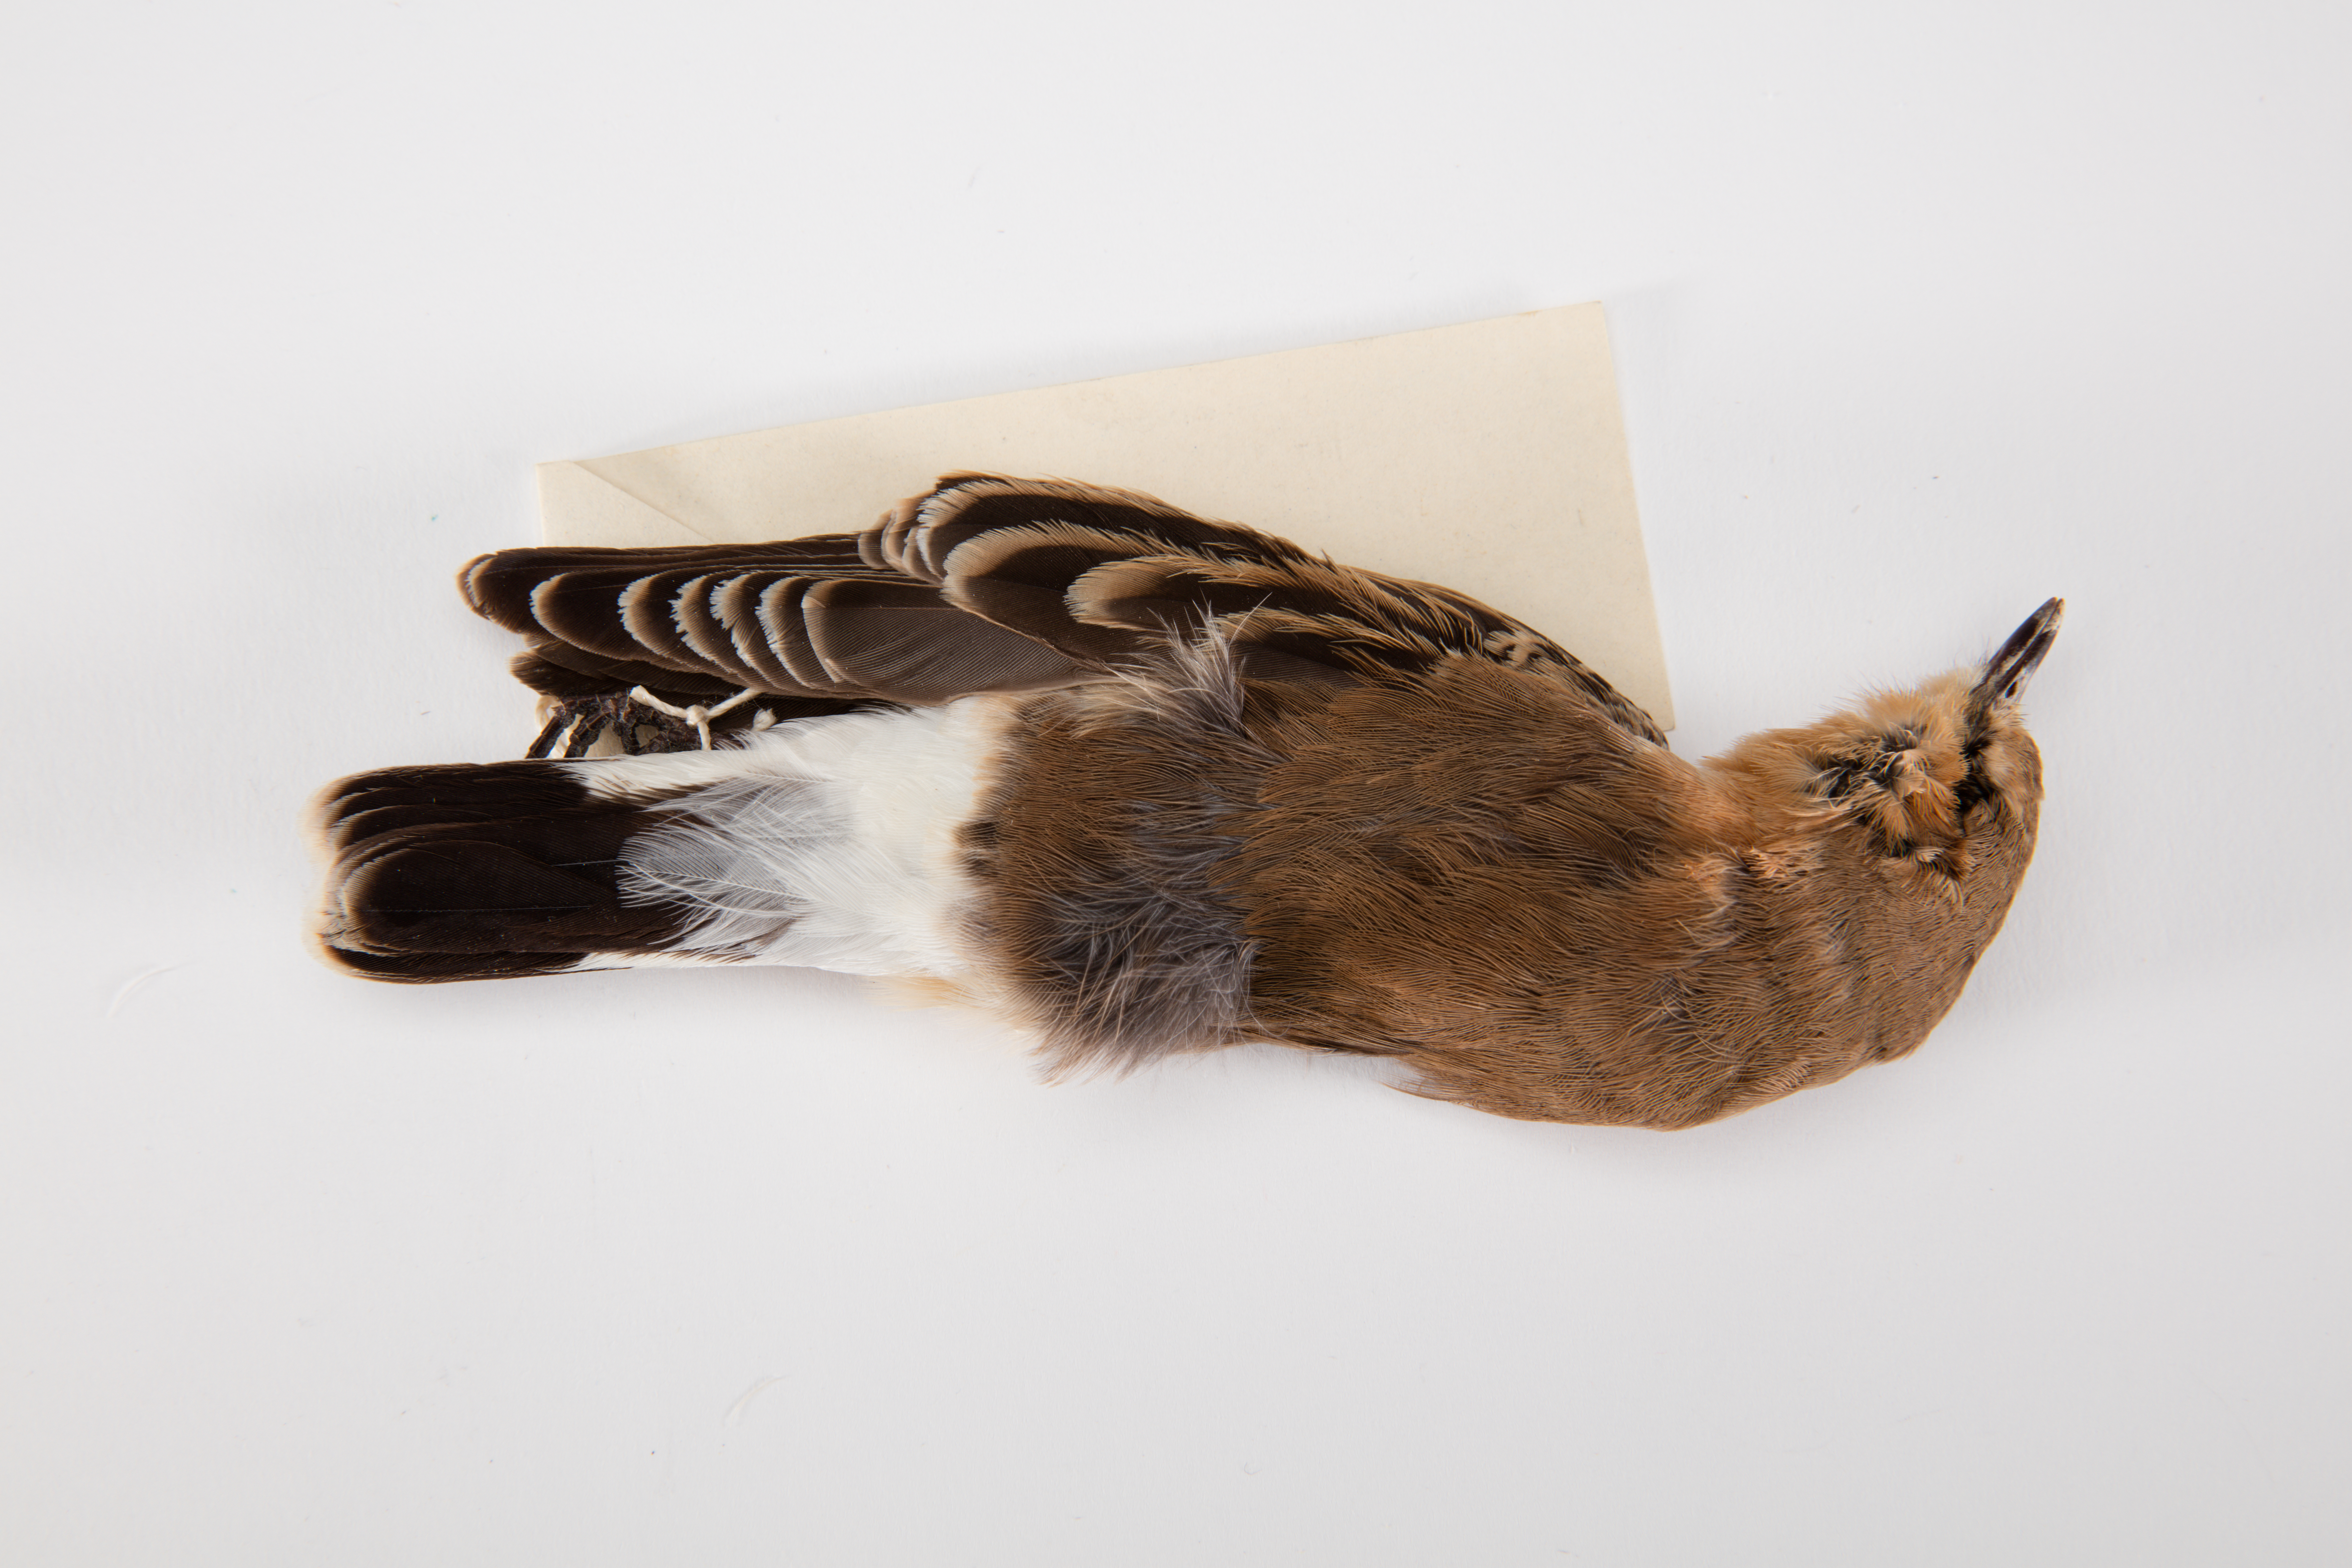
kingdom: Animalia
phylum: Chordata
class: Aves
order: Passeriformes
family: Muscicapidae
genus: Oenanthe
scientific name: Oenanthe oenanthe
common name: Northern wheatear
